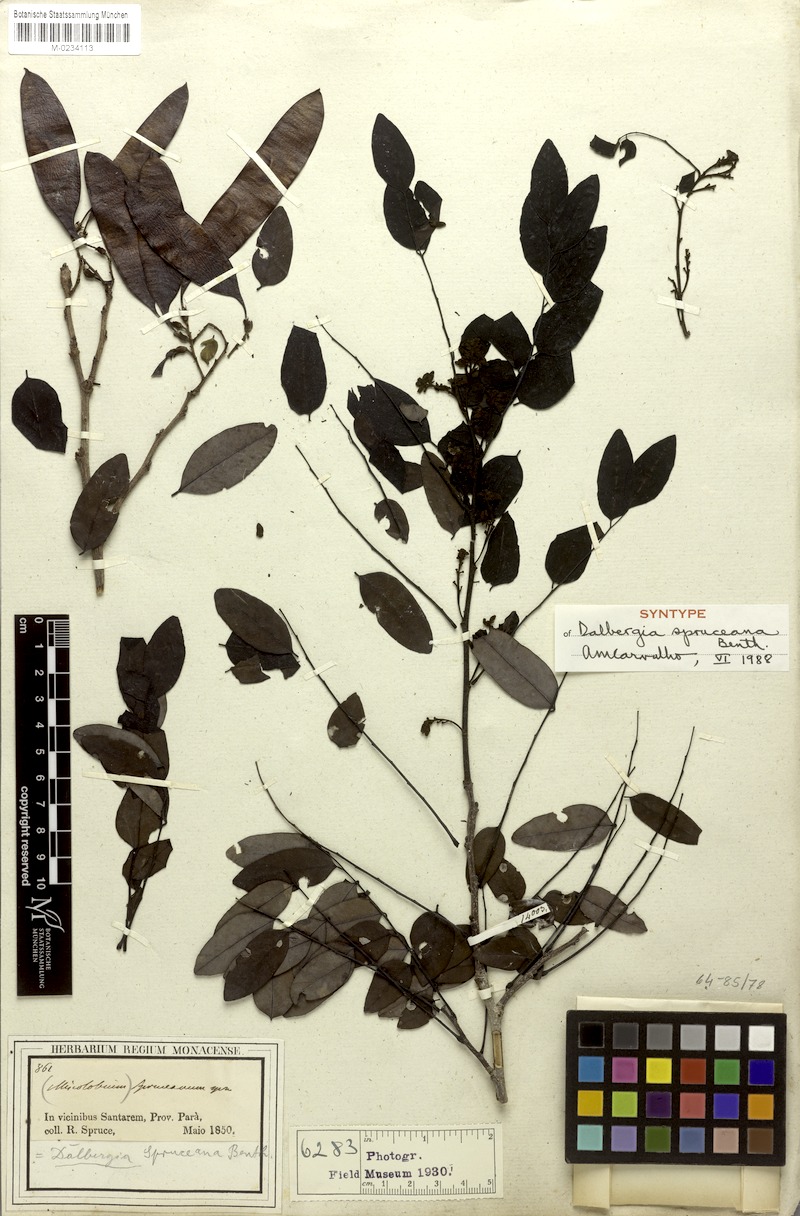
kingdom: Plantae
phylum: Tracheophyta
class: Magnoliopsida
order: Fabales
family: Fabaceae
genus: Dalbergia
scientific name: Dalbergia spruceana
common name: Amazon rosewood
